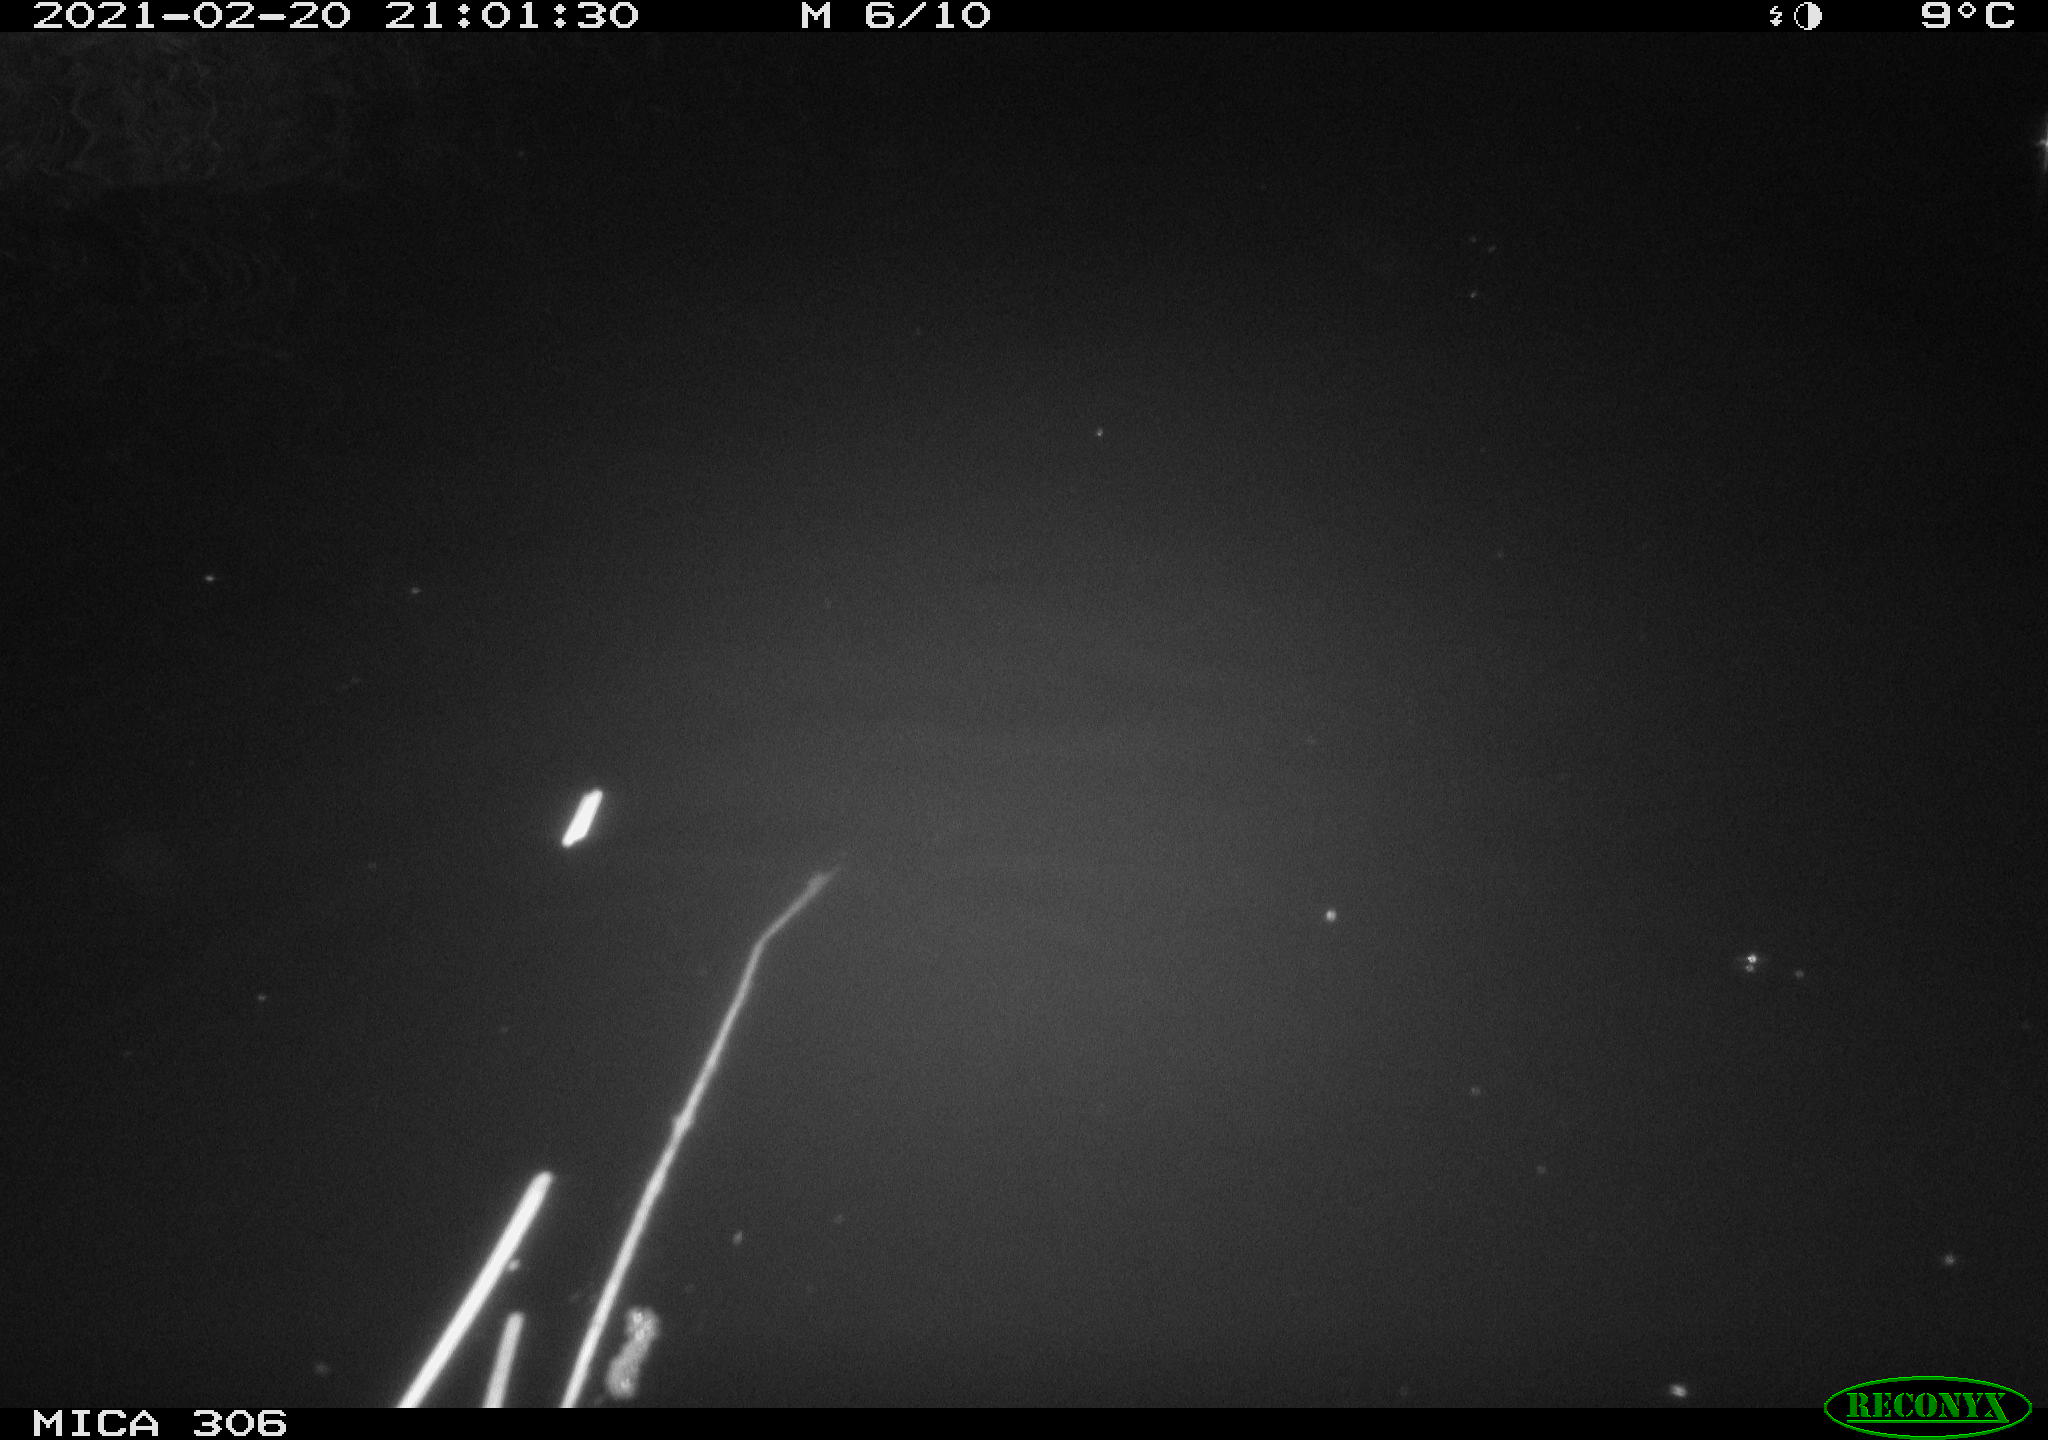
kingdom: Animalia
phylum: Chordata
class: Mammalia
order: Rodentia
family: Cricetidae
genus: Ondatra
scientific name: Ondatra zibethicus
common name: Muskrat
